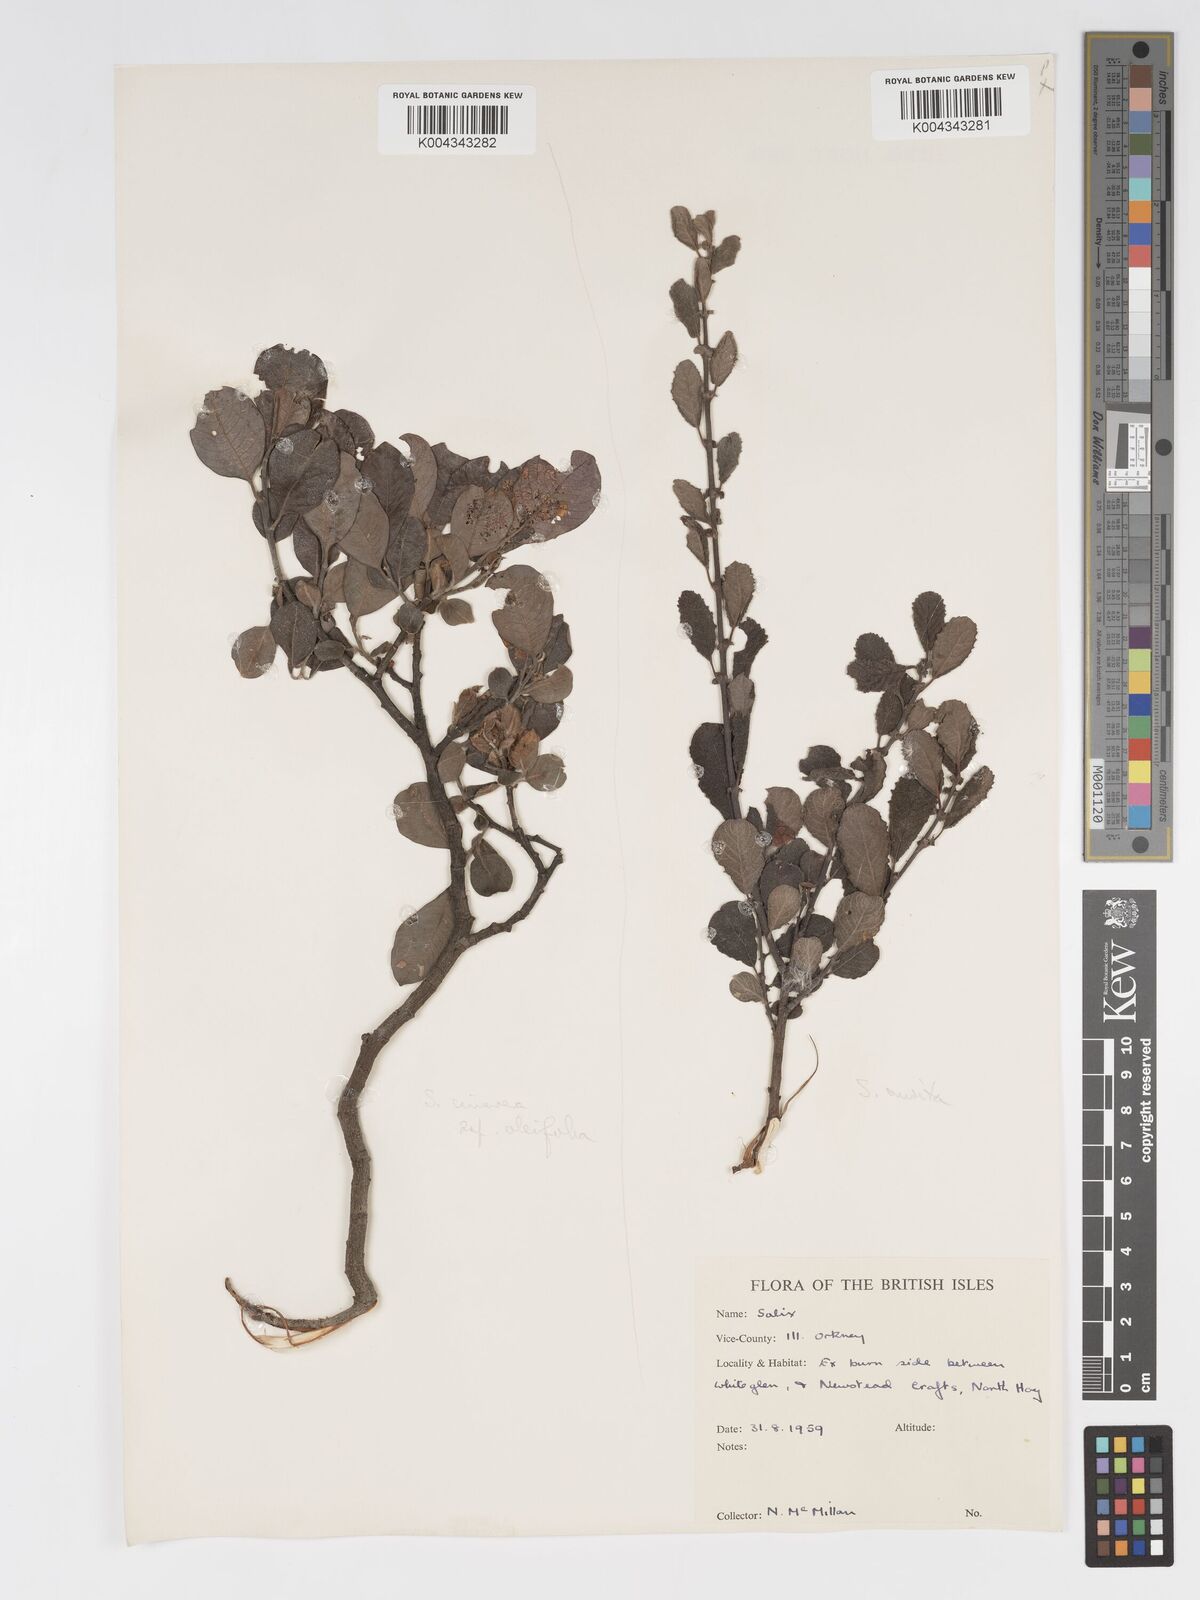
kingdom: Plantae
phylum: Tracheophyta
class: Magnoliopsida
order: Malpighiales
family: Salicaceae
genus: Salix
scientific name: Salix aurita
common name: Eared willow
